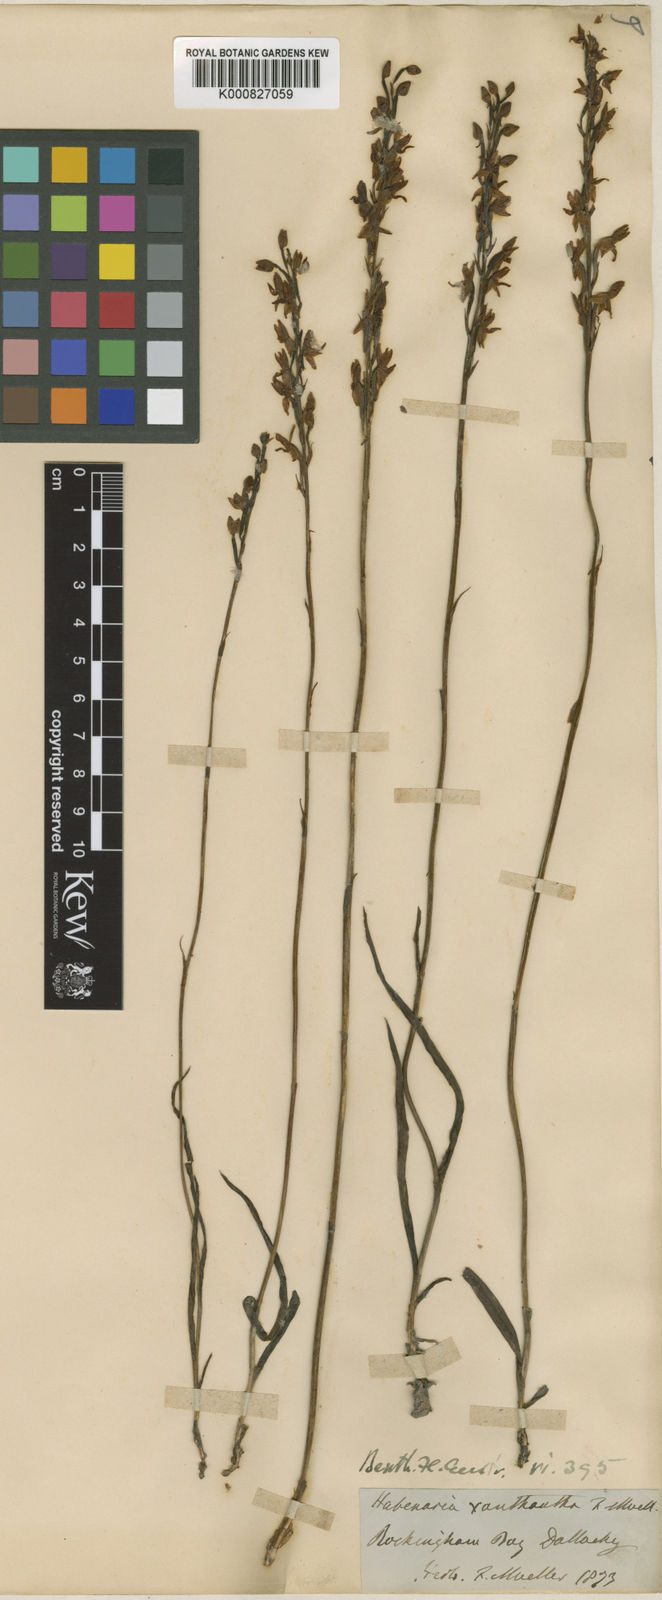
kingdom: Plantae
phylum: Tracheophyta
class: Liliopsida
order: Asparagales
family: Orchidaceae
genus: Habenaria
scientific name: Habenaria xanthantha
